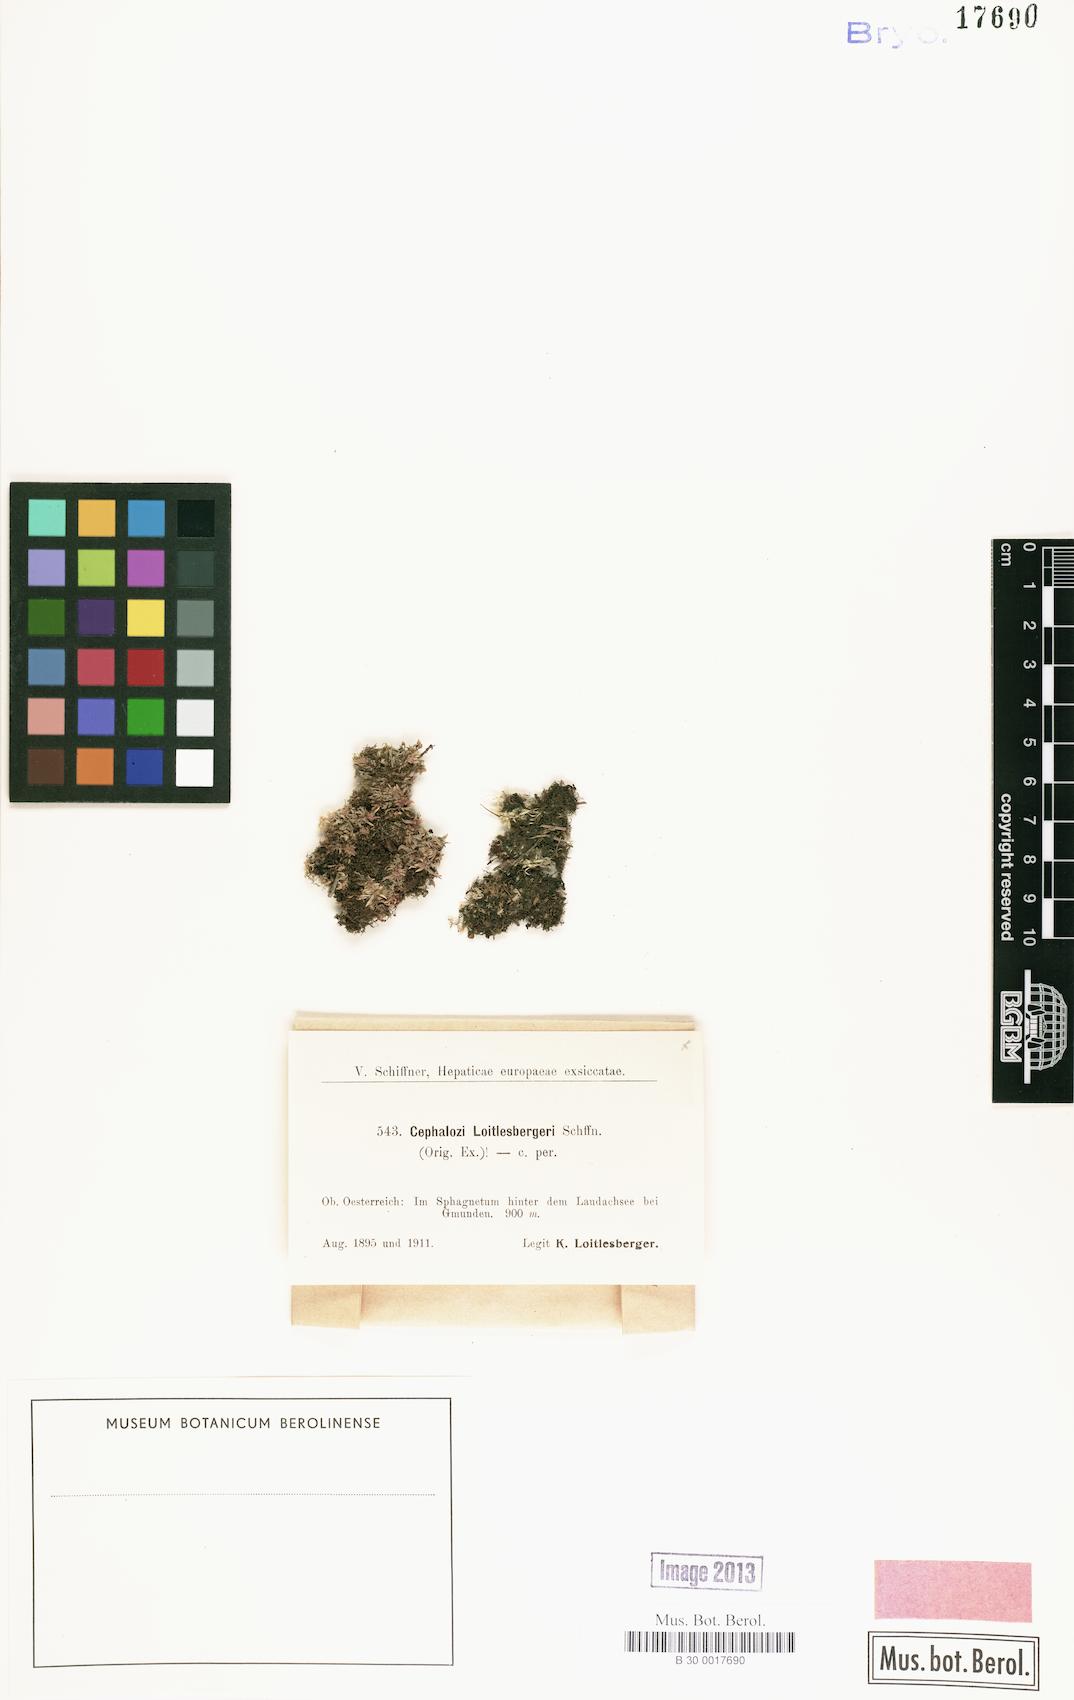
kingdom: Plantae
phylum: Marchantiophyta
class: Jungermanniopsida
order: Jungermanniales
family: Cephaloziaceae
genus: Fuscocephaloziopsis
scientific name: Fuscocephaloziopsis loitlesbergeri
